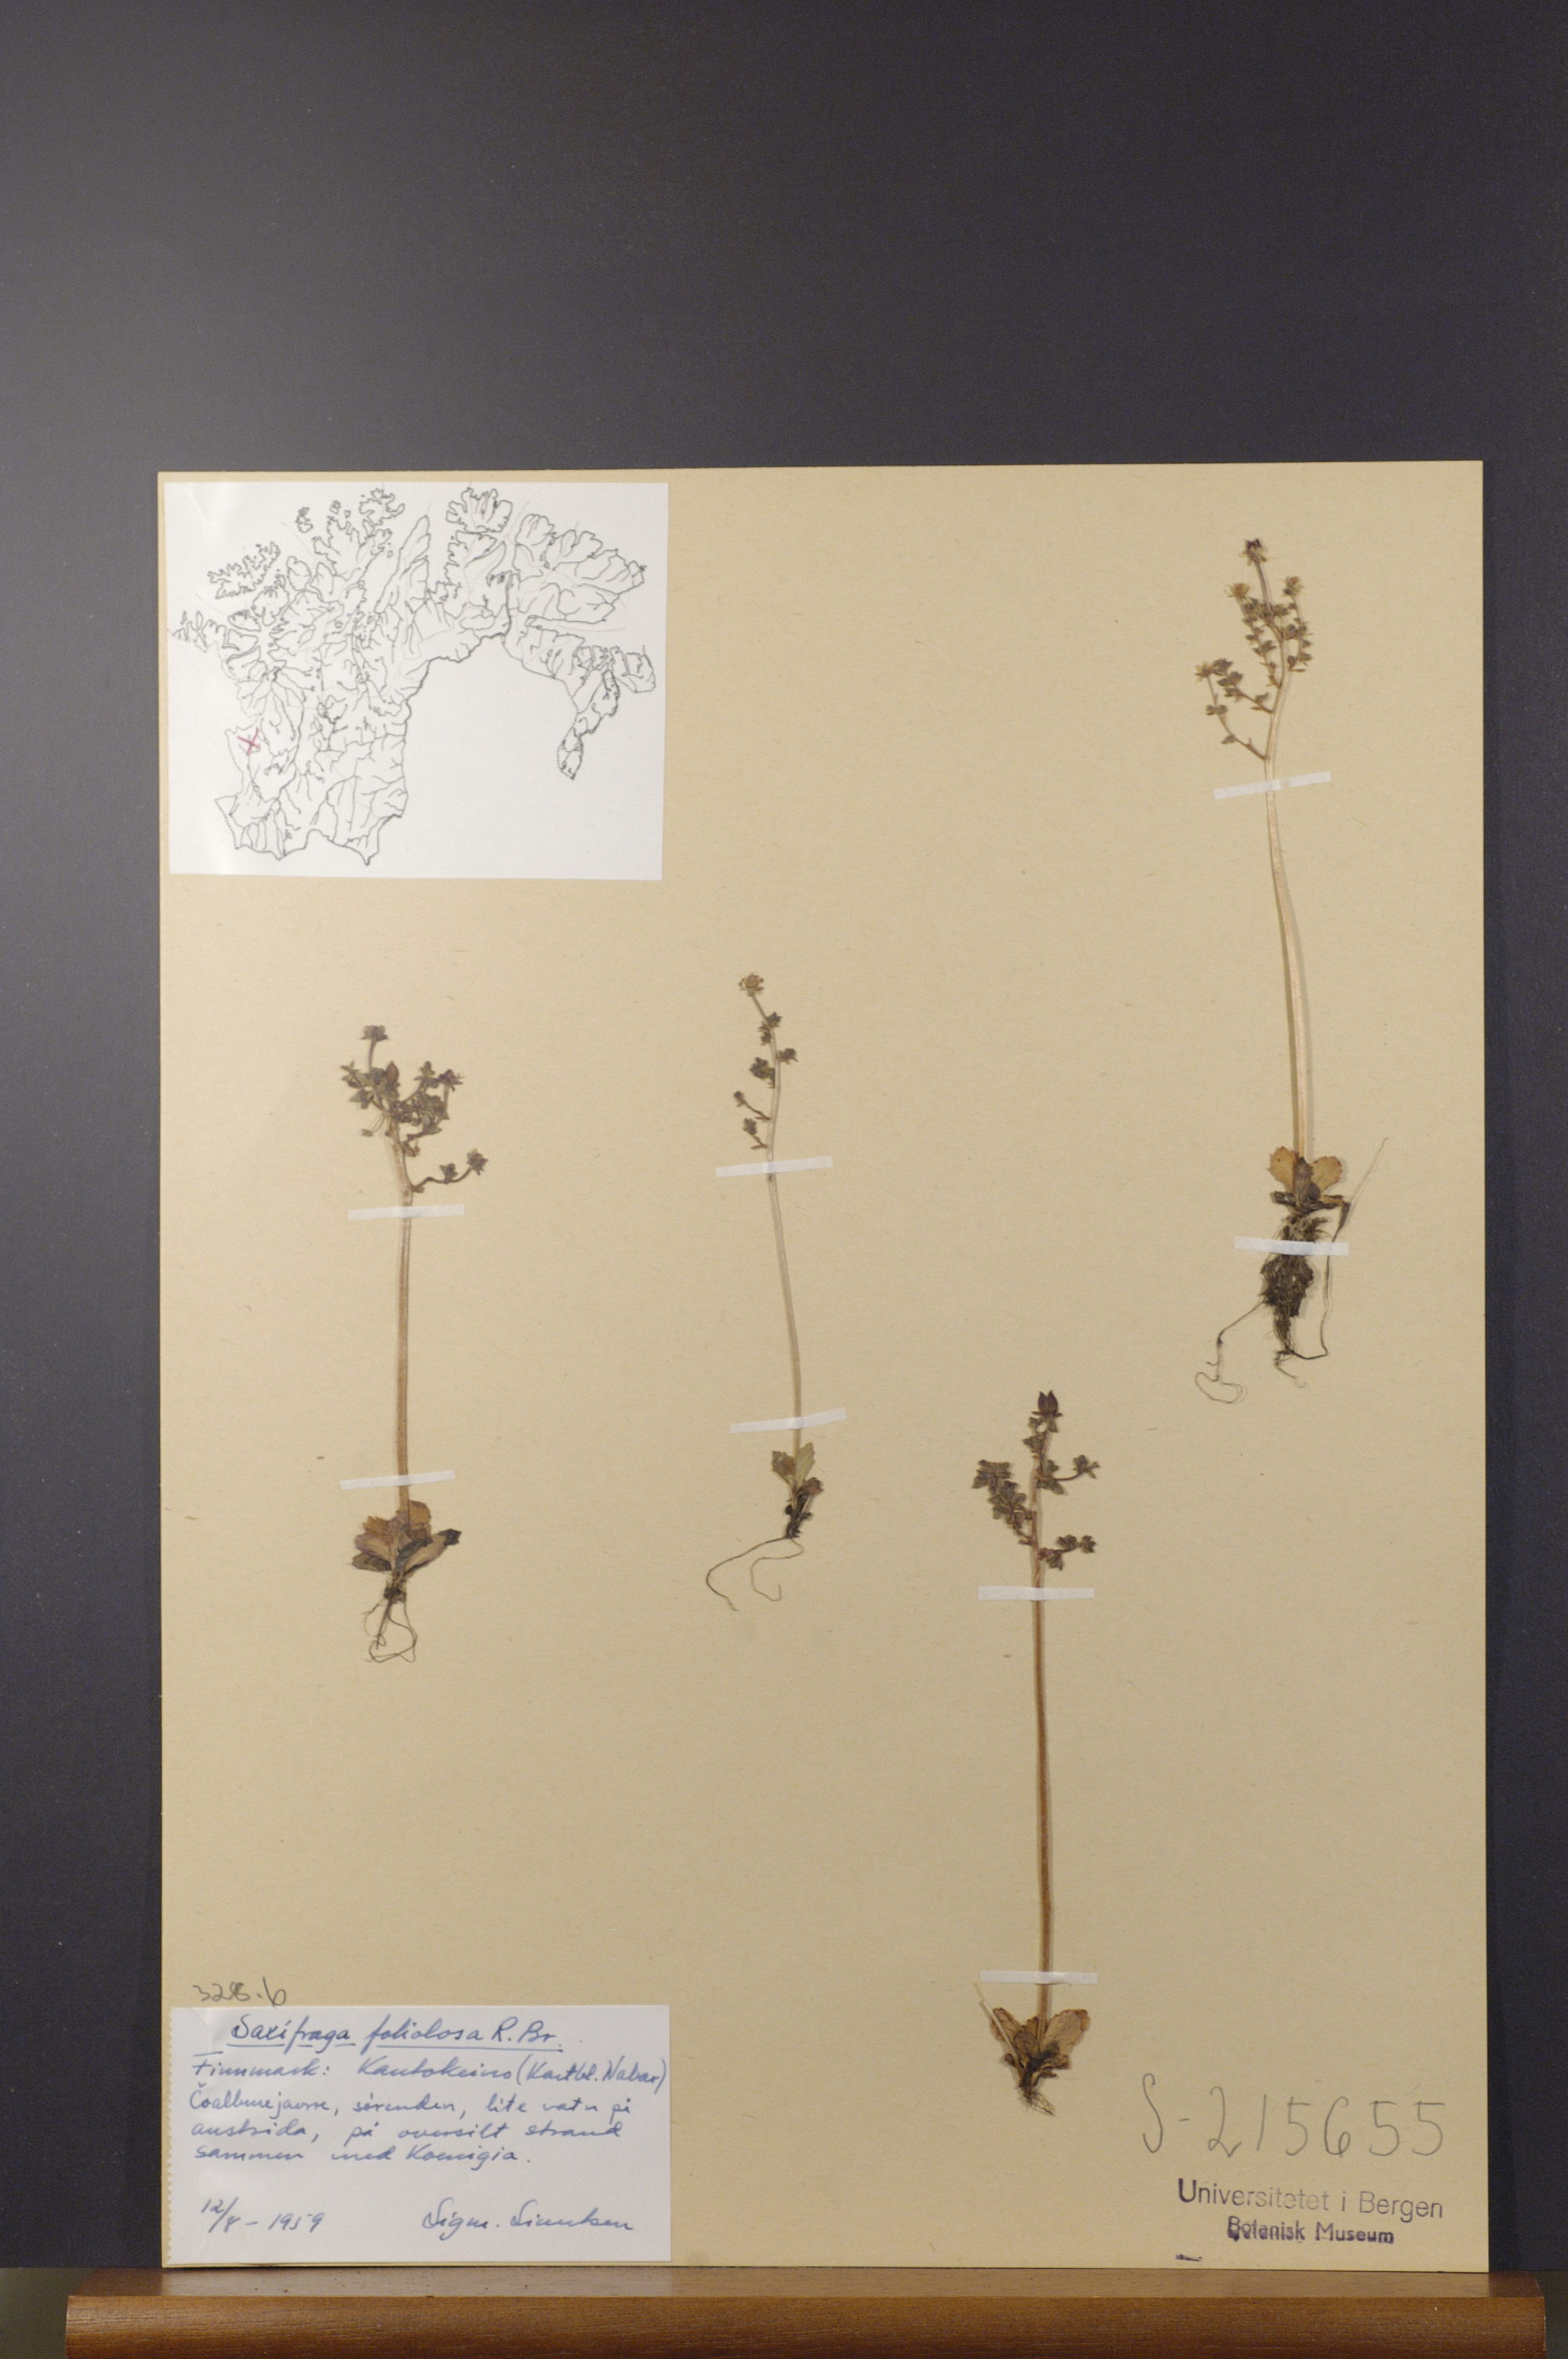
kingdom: Plantae
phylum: Tracheophyta
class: Magnoliopsida
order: Saxifragales
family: Saxifragaceae
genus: Micranthes
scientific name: Micranthes foliolosa
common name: Leafystem saxifrage
